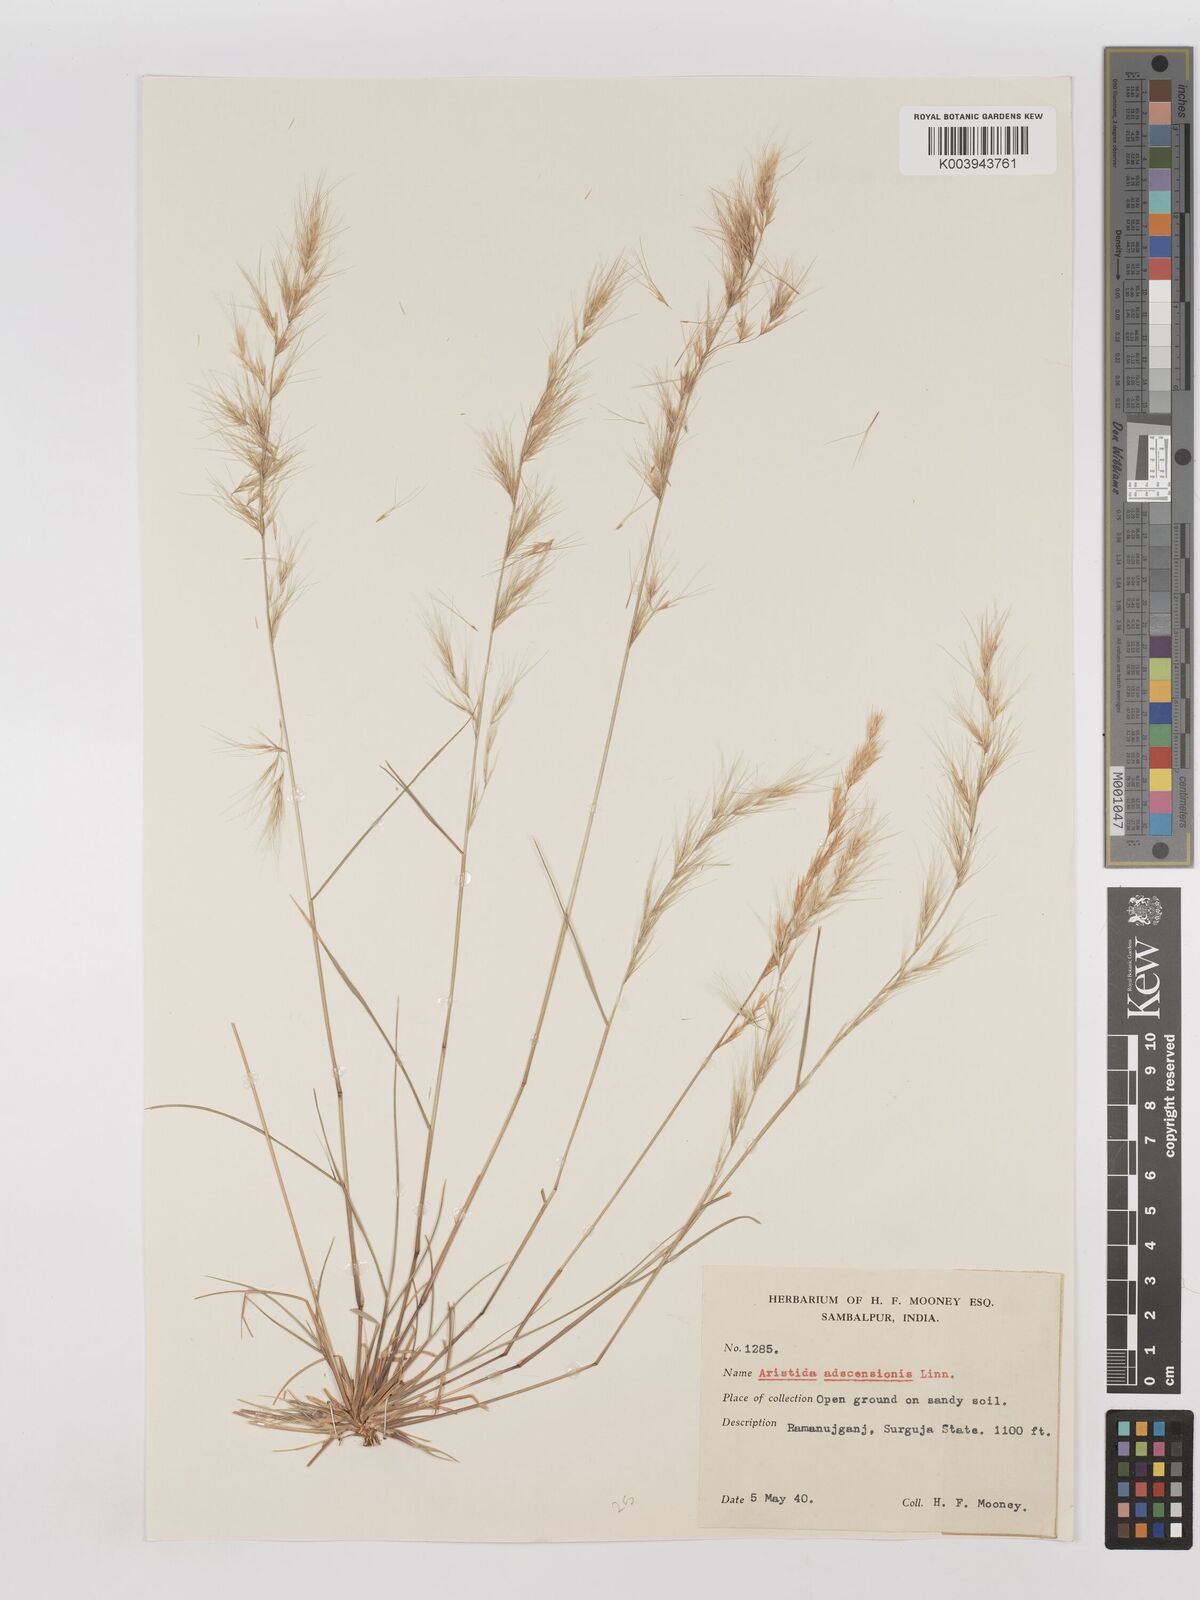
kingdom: Plantae
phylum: Tracheophyta
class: Liliopsida
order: Poales
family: Poaceae
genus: Aristida
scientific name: Aristida adscensionis
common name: Sixweeks threeawn
